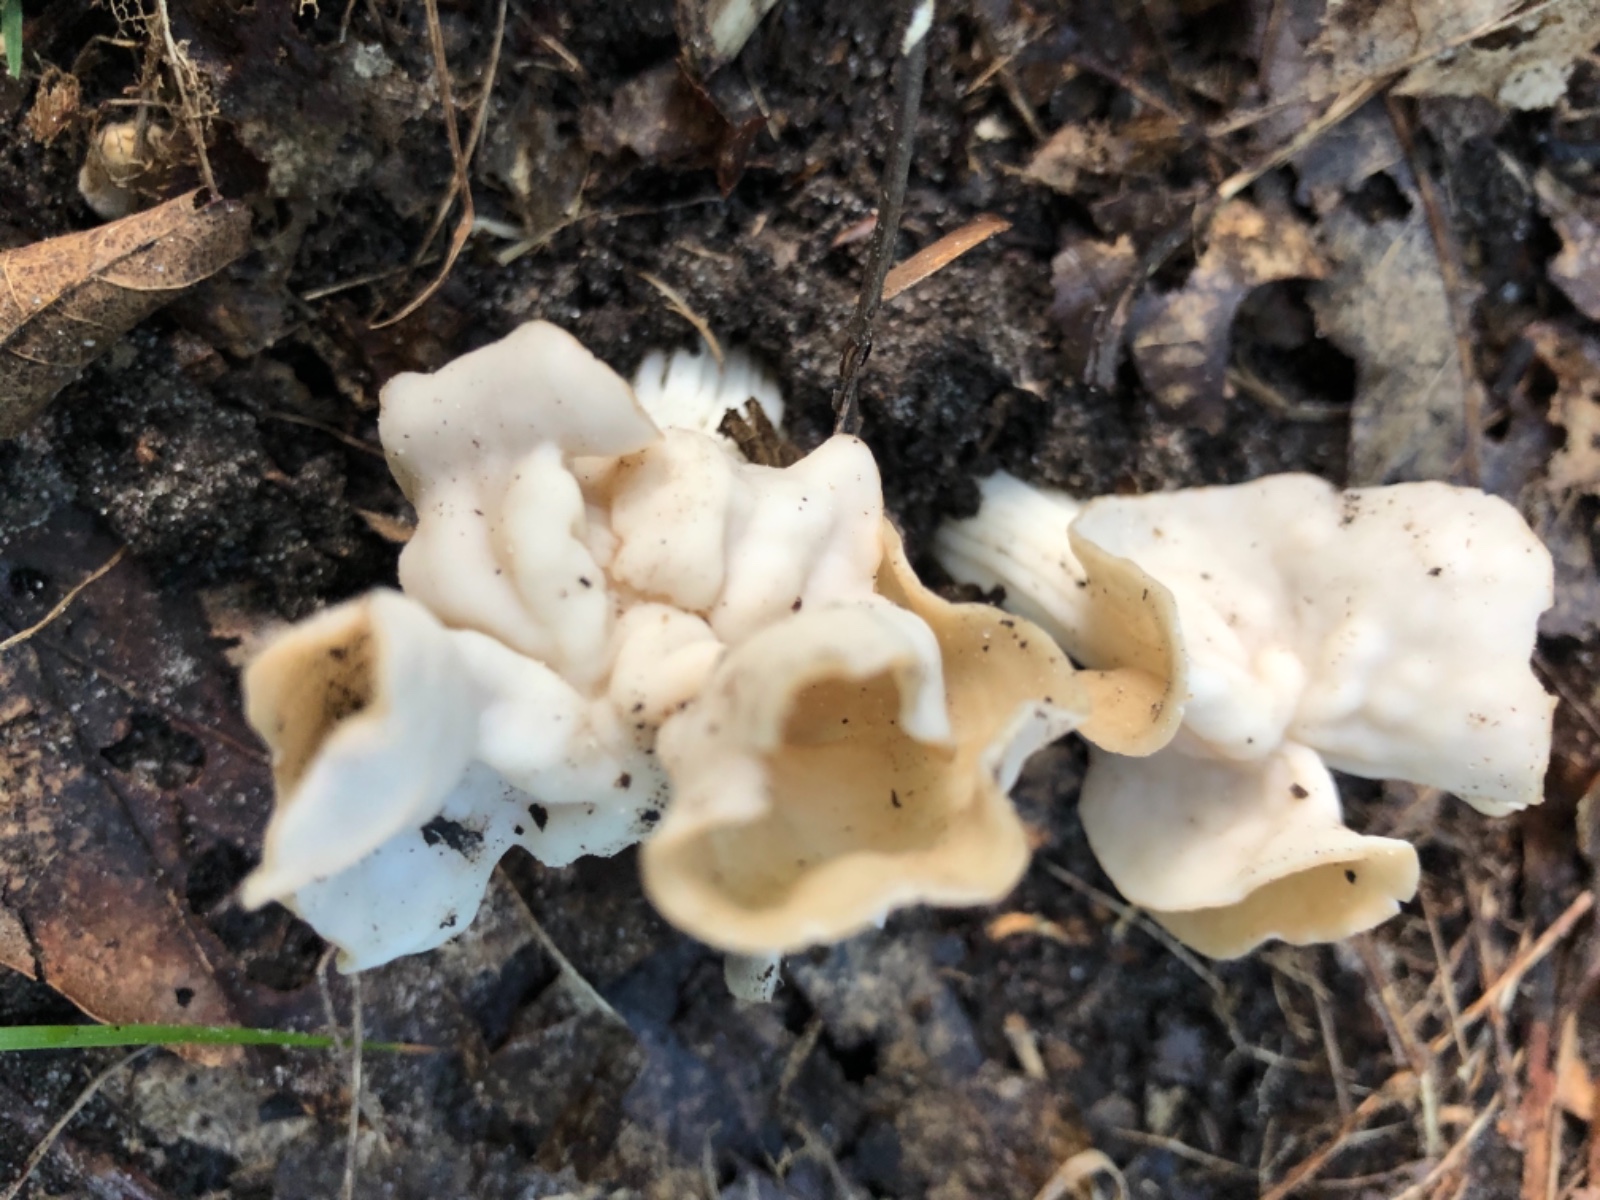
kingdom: Fungi
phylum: Ascomycota
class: Pezizomycetes
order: Pezizales
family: Helvellaceae
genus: Helvella
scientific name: Helvella crispa
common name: kruset foldhat
